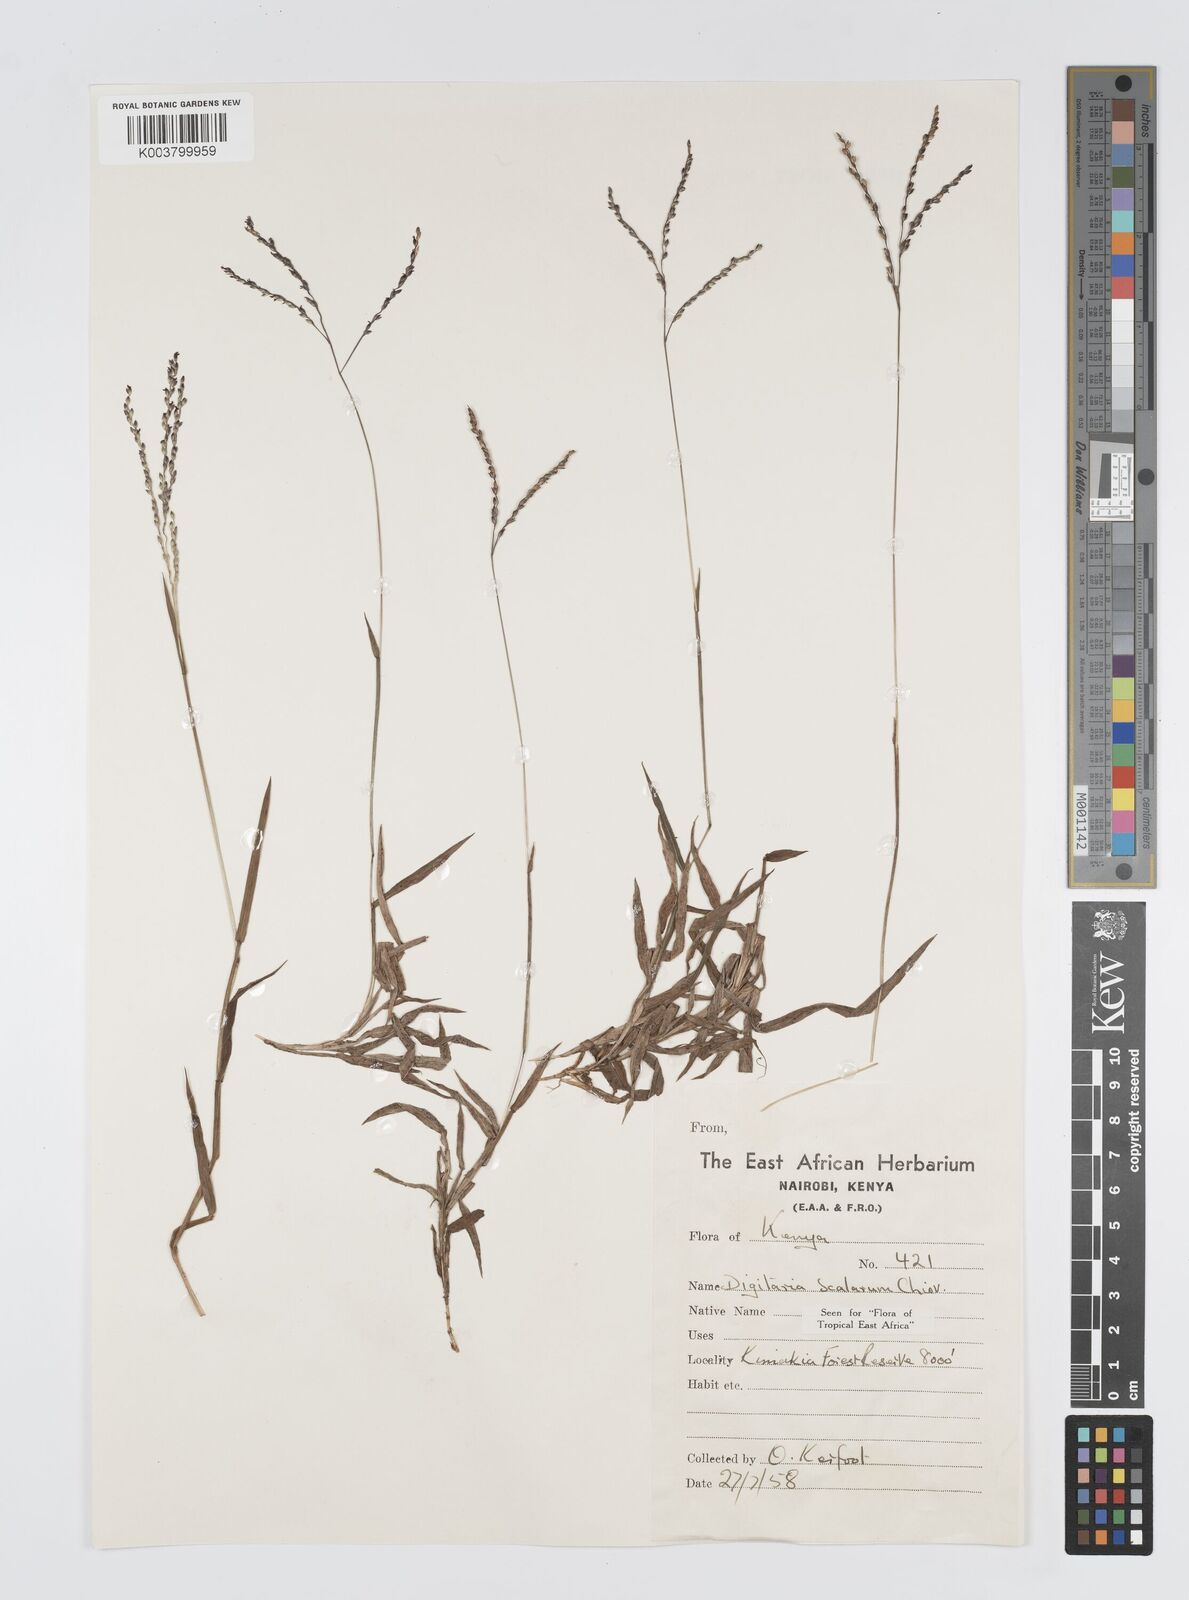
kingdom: Plantae
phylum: Tracheophyta
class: Liliopsida
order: Poales
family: Poaceae
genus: Digitaria
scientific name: Digitaria abyssinica
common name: African couchgrass
